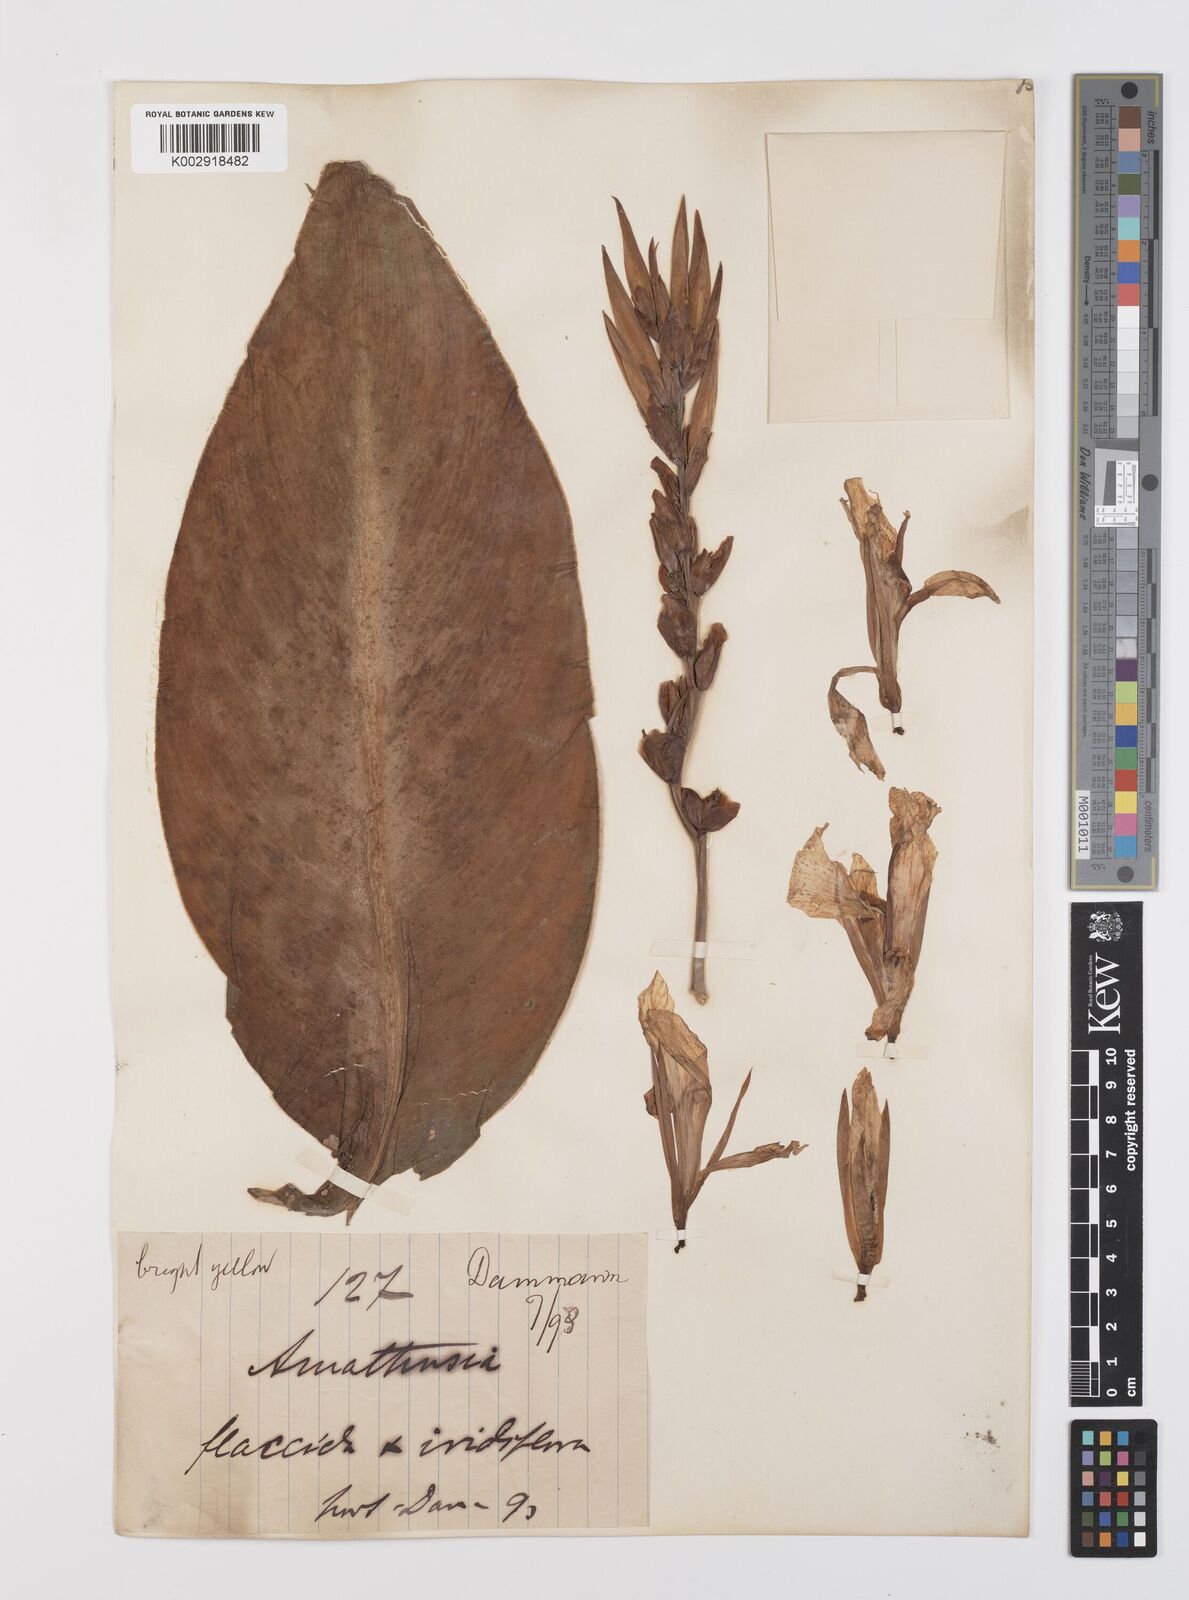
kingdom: Plantae
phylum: Tracheophyta
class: Liliopsida
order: Zingiberales
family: Cannaceae
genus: Canna
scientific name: Canna
